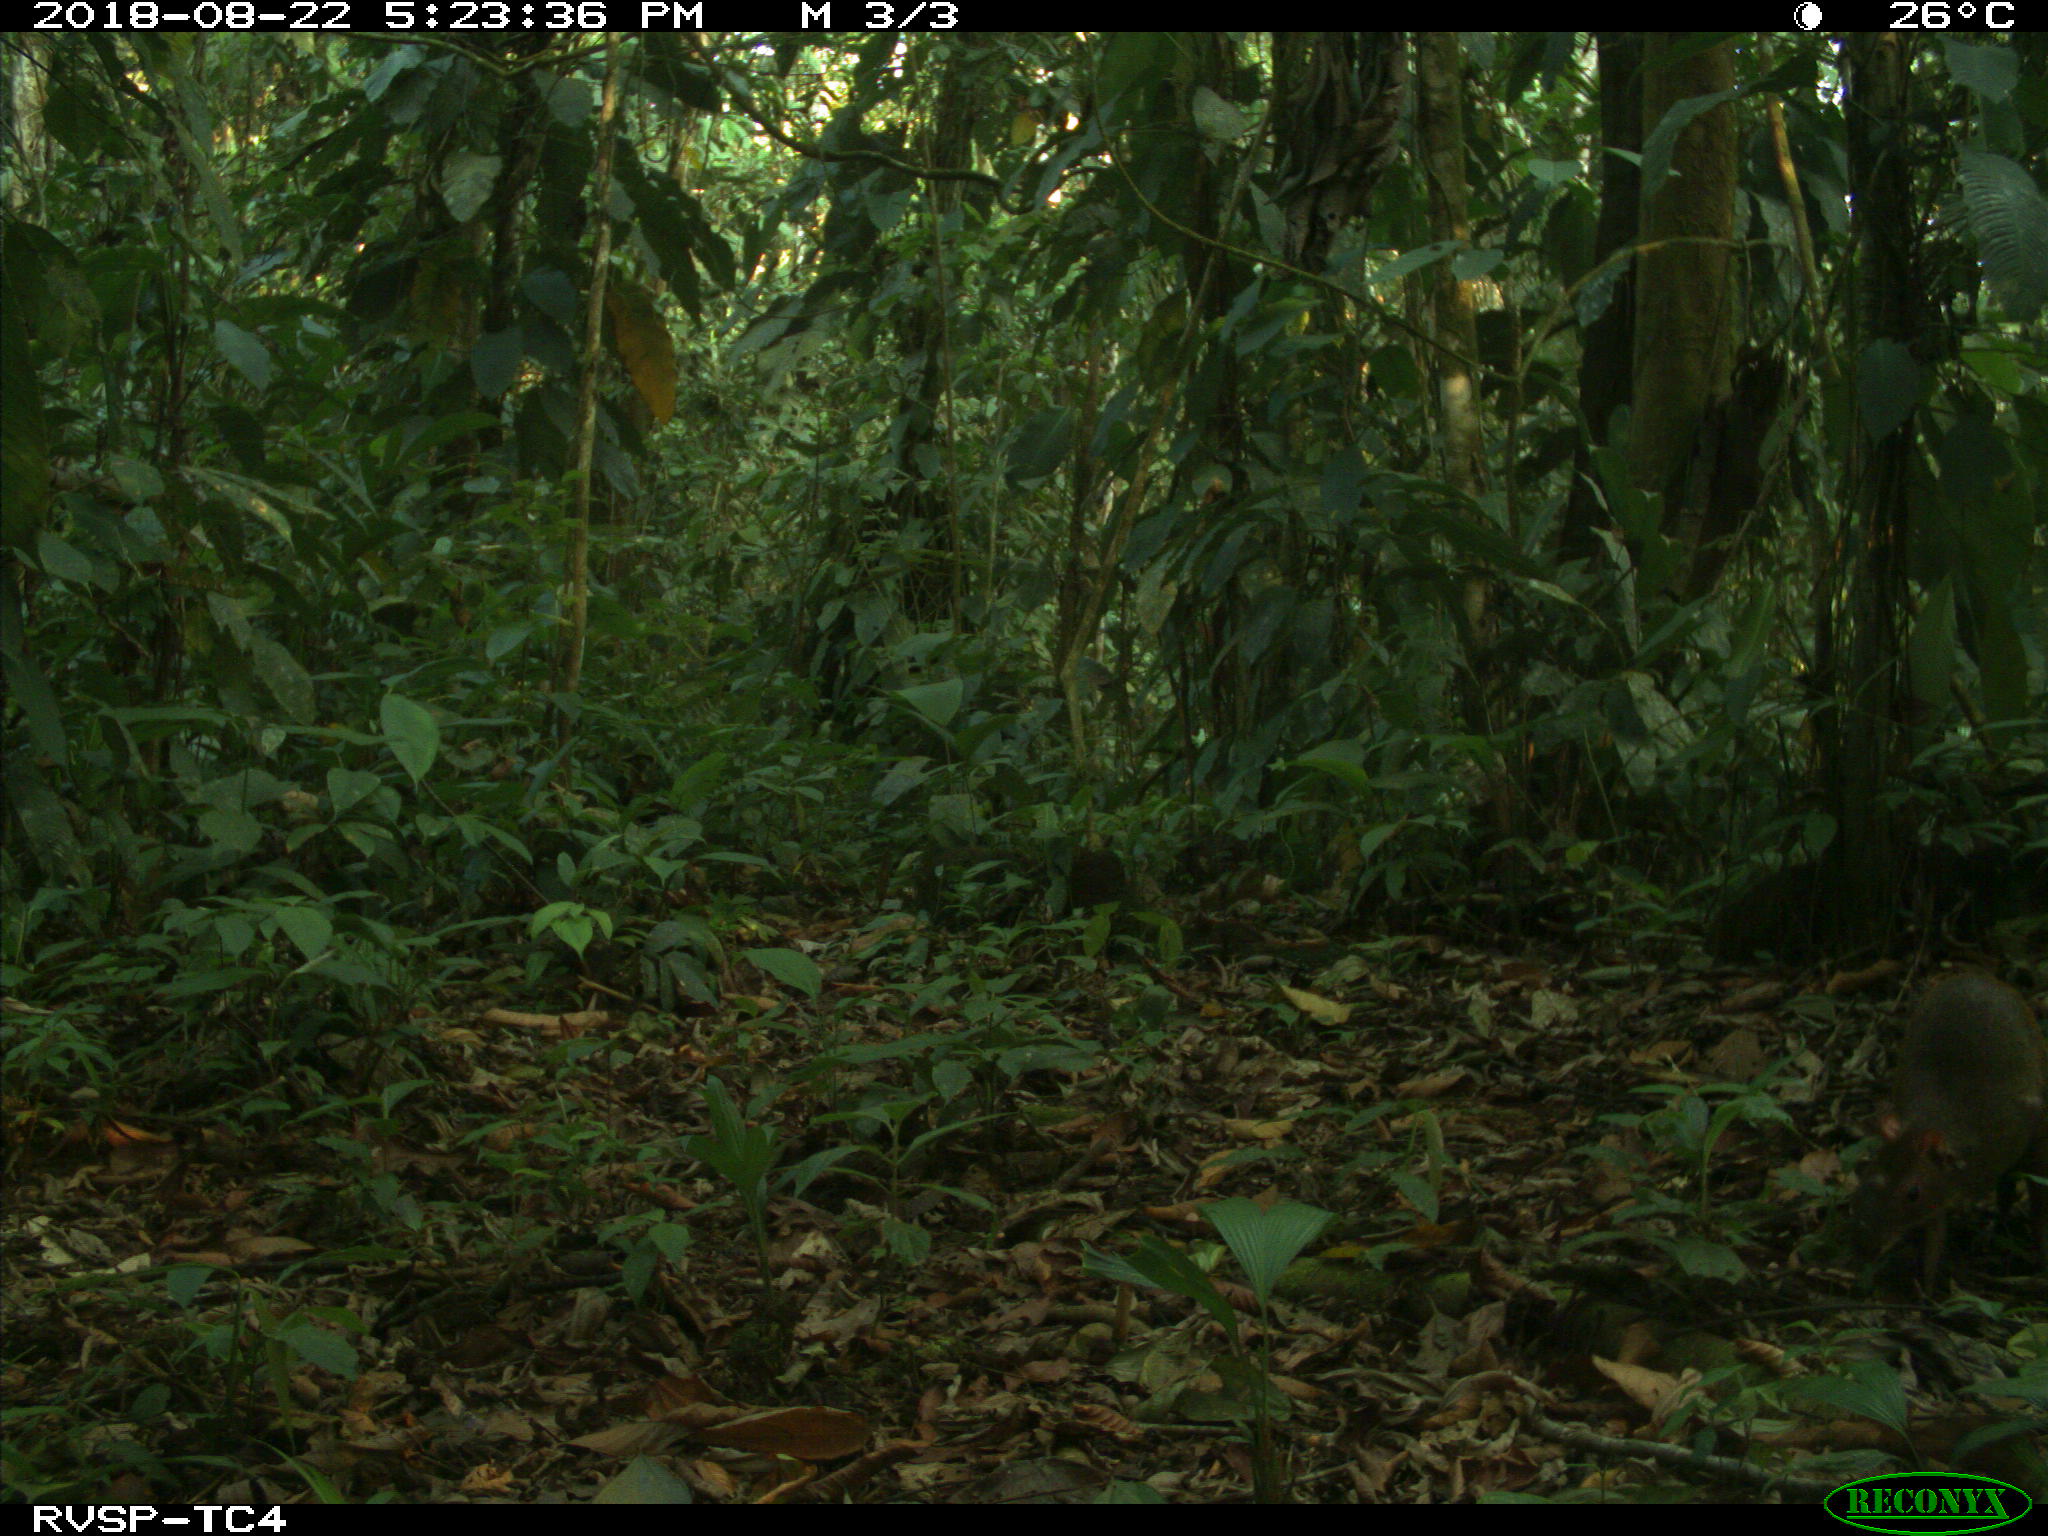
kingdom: Animalia
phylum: Chordata
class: Mammalia
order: Rodentia
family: Dasyproctidae
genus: Dasyprocta
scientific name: Dasyprocta punctata
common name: Central american agouti
